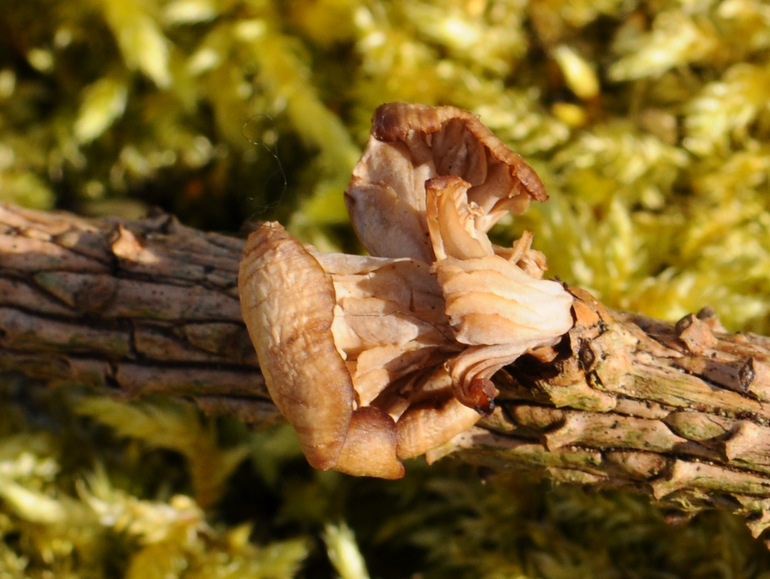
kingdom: Fungi
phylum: Basidiomycota
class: Agaricomycetes
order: Russulales
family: Auriscalpiaceae
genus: Lentinellus
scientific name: Lentinellus flabelliformis
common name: navle-savbladhat
